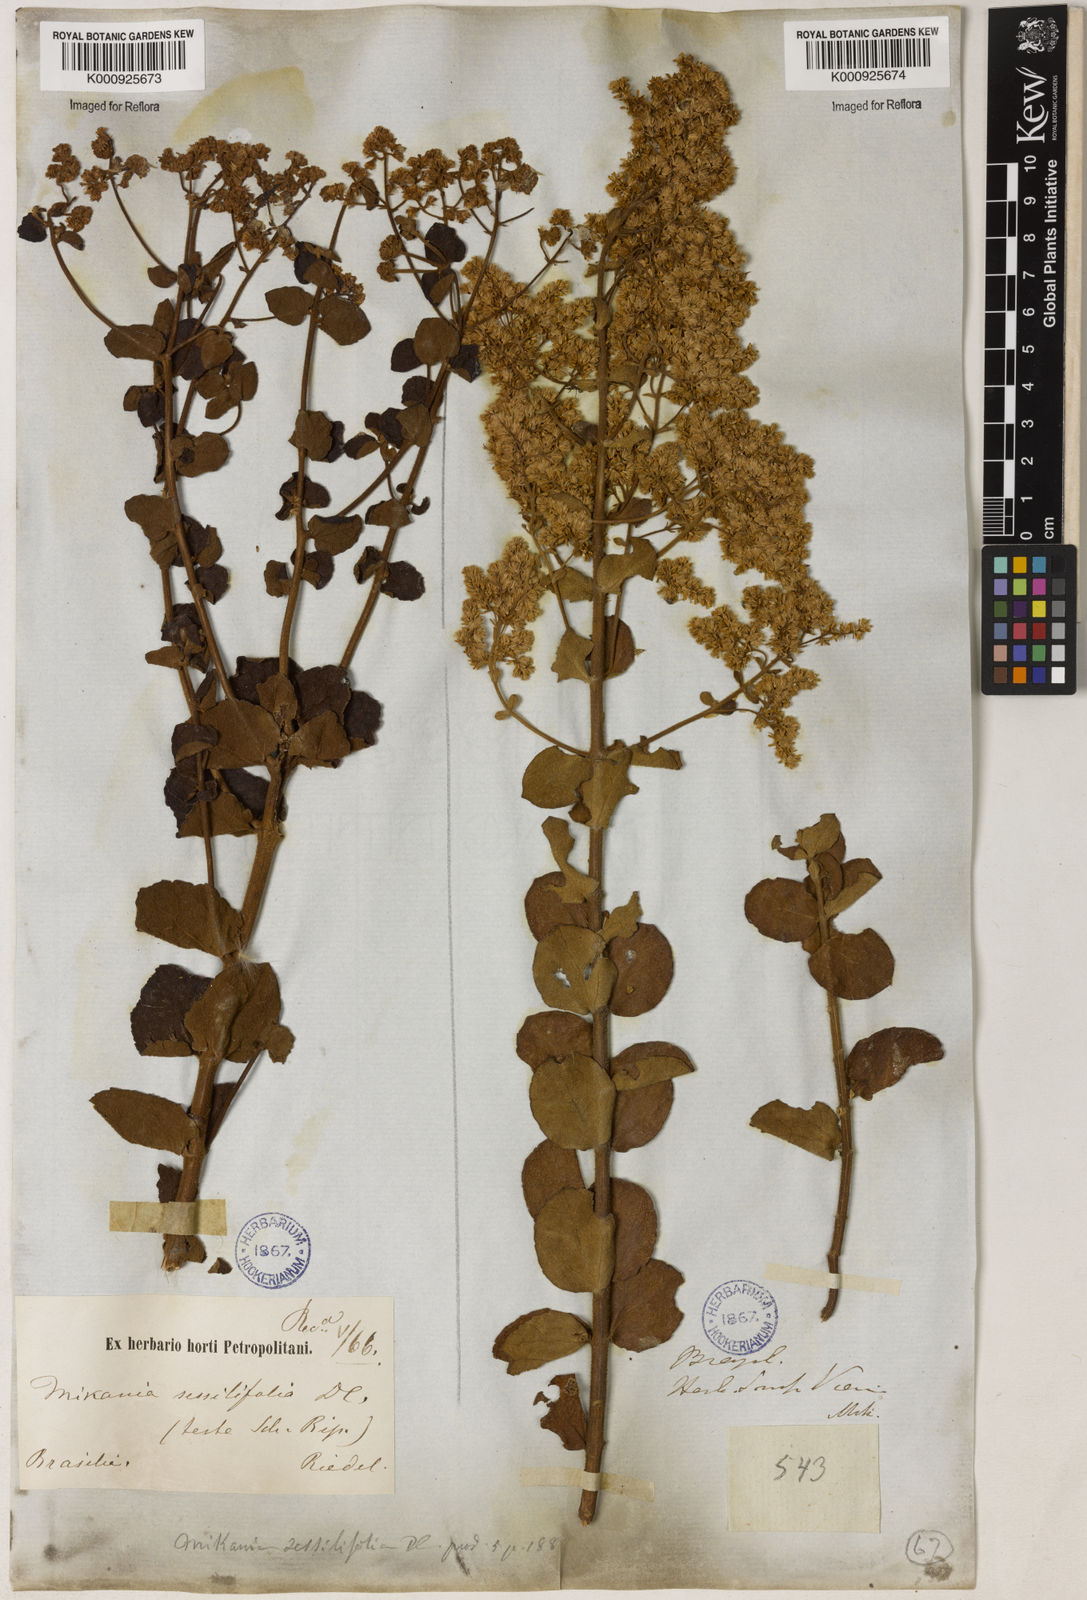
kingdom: Plantae
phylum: Tracheophyta
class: Magnoliopsida
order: Asterales
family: Asteraceae
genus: Mikania
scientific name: Mikania sessilifolia
